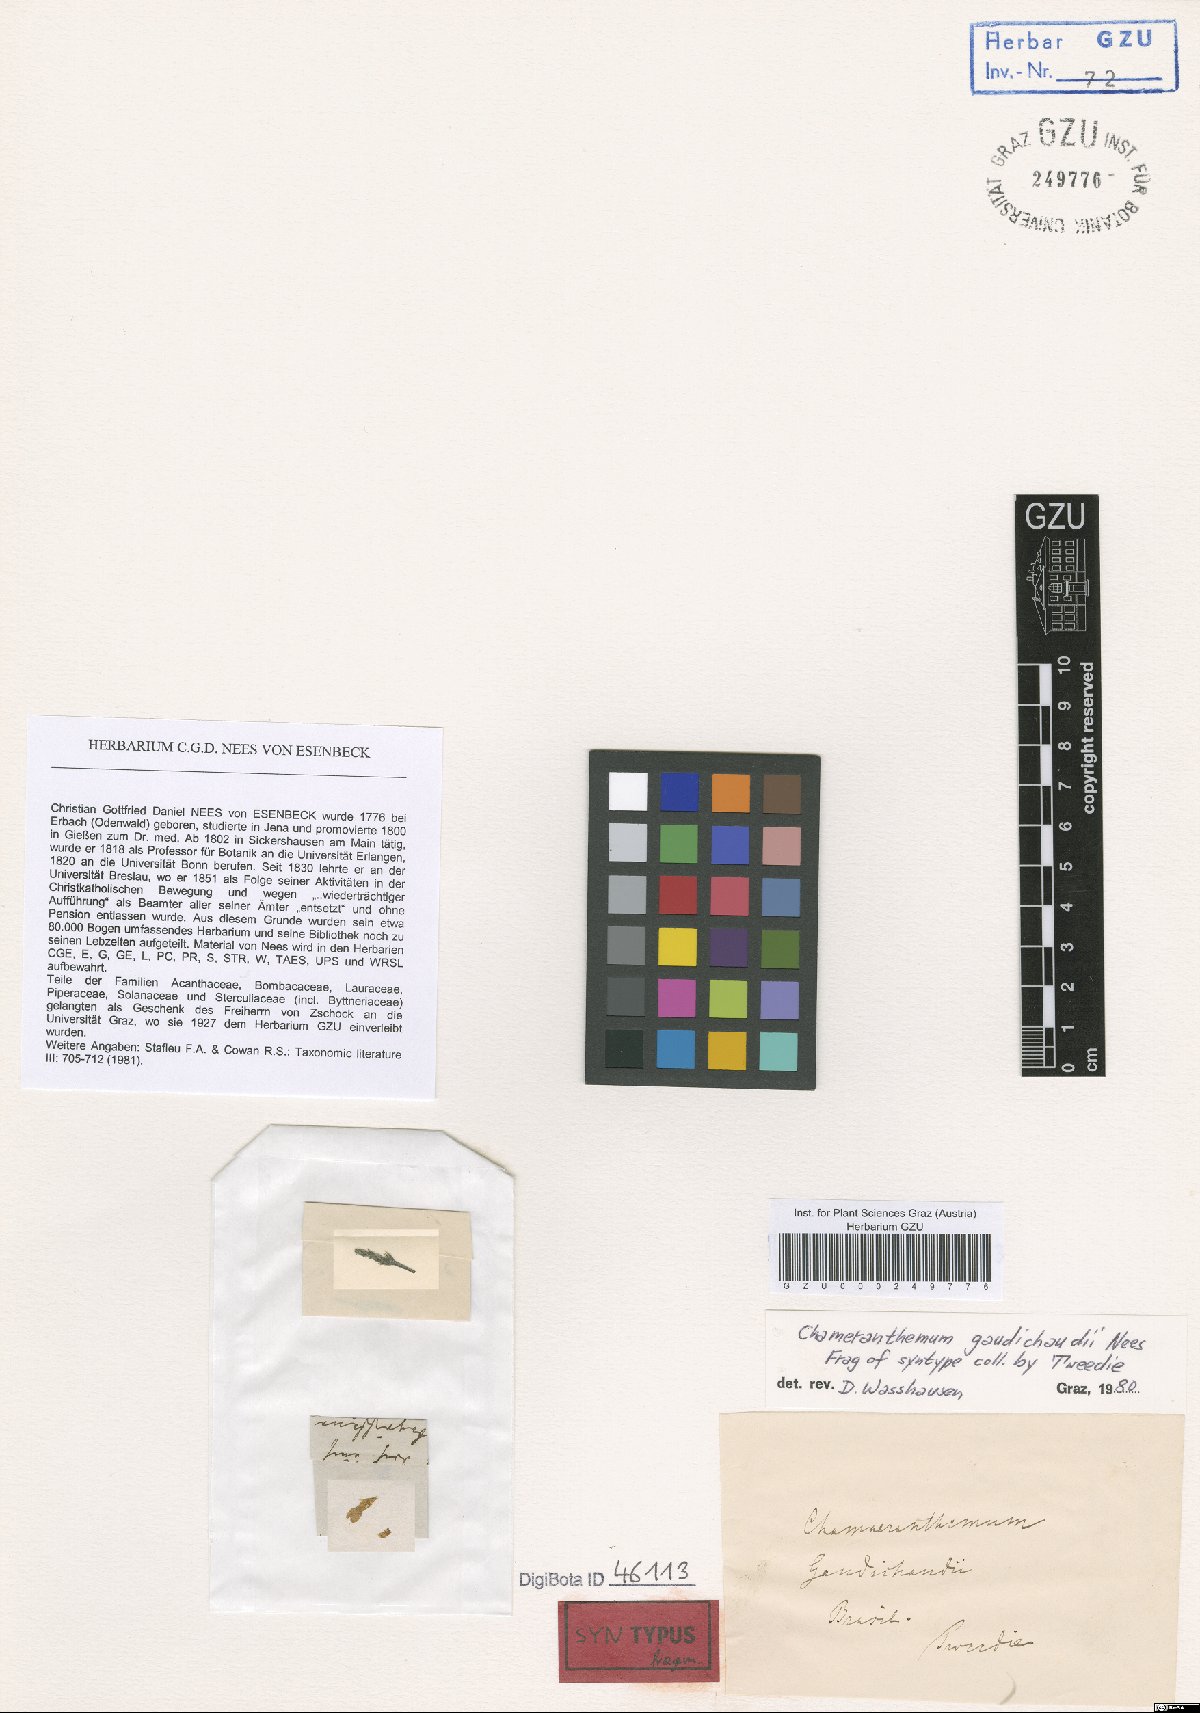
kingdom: Plantae
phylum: Tracheophyta
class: Magnoliopsida
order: Lamiales
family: Acanthaceae
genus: Chamaeranthemum
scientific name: Chamaeranthemum beyrichii
